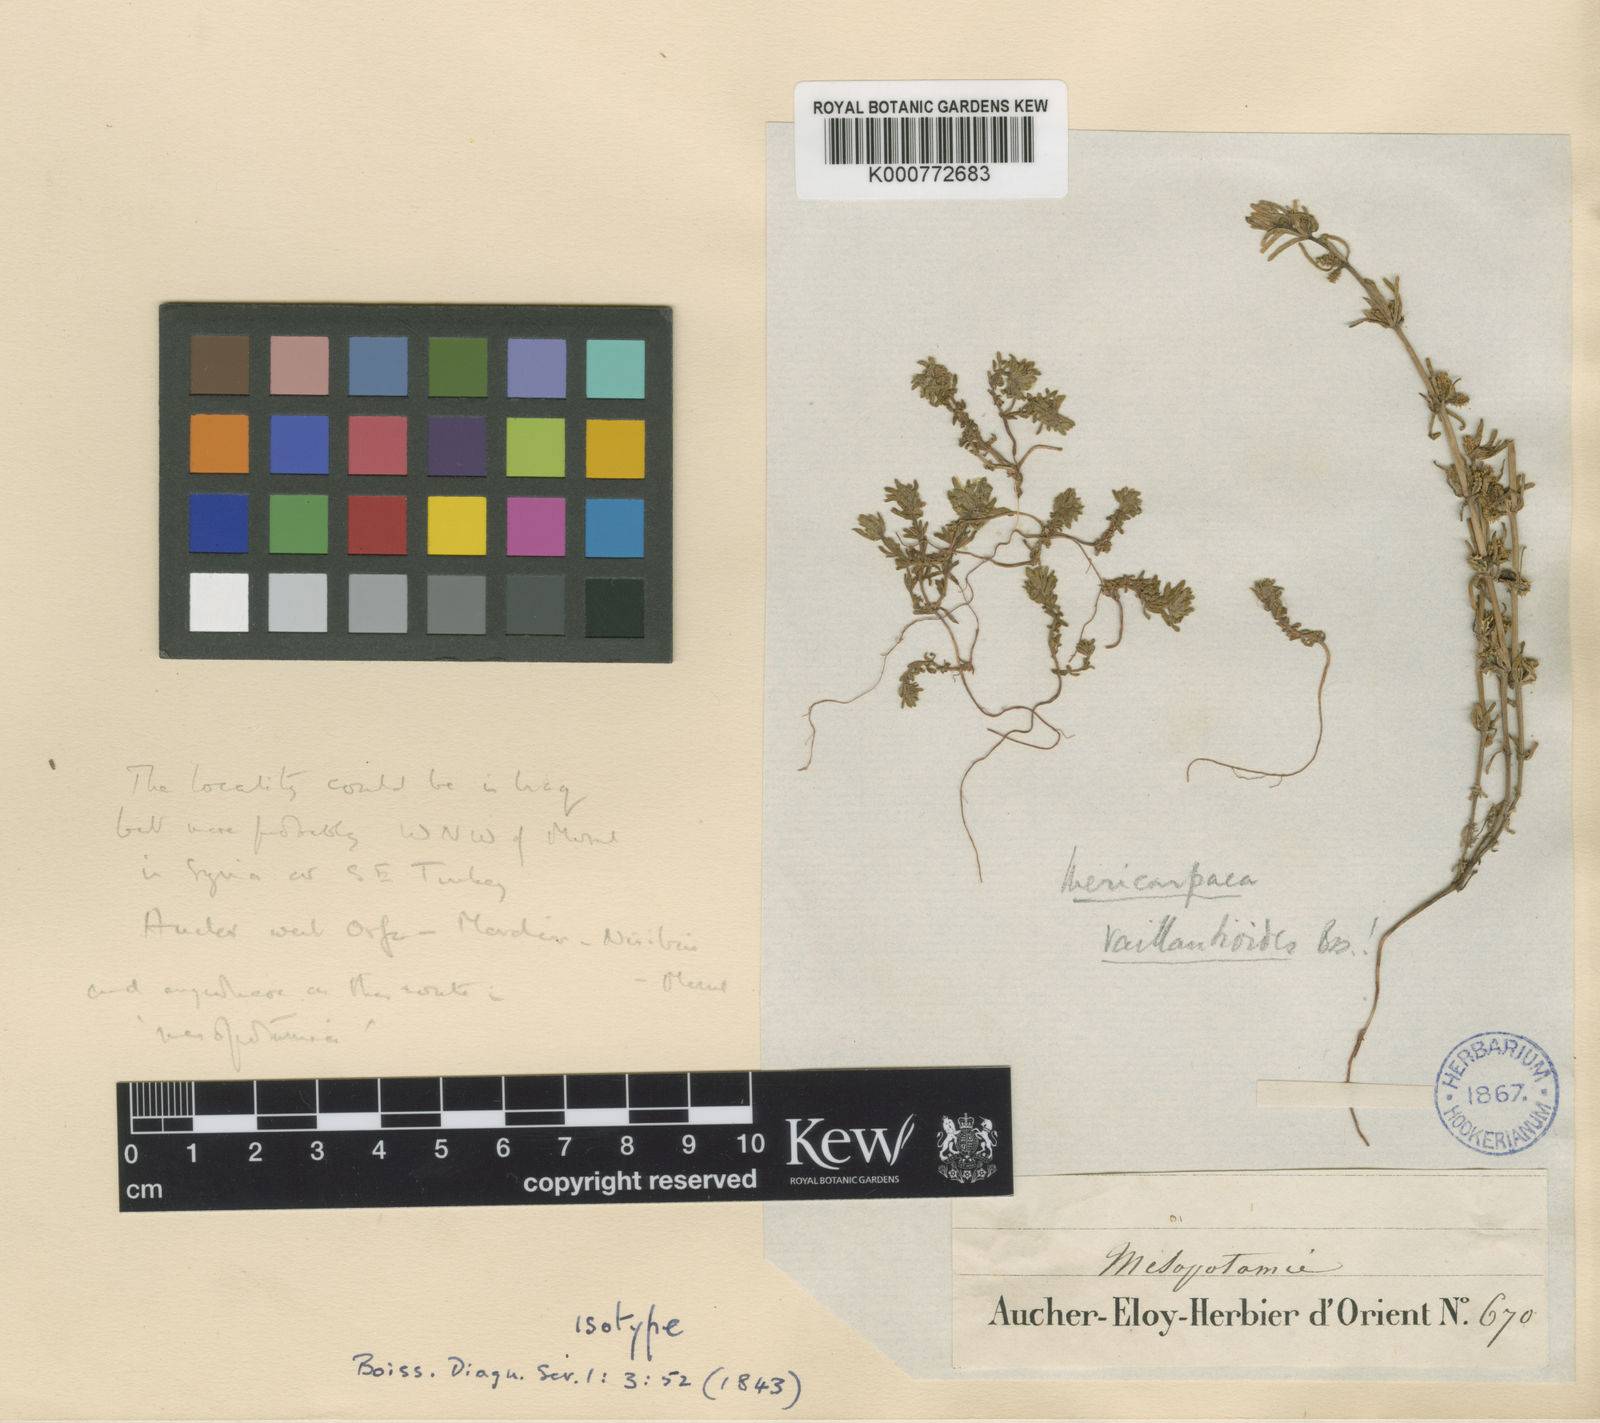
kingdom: Plantae
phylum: Tracheophyta
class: Magnoliopsida
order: Gentianales
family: Rubiaceae
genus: Mericarpaea
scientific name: Mericarpaea ciliata
